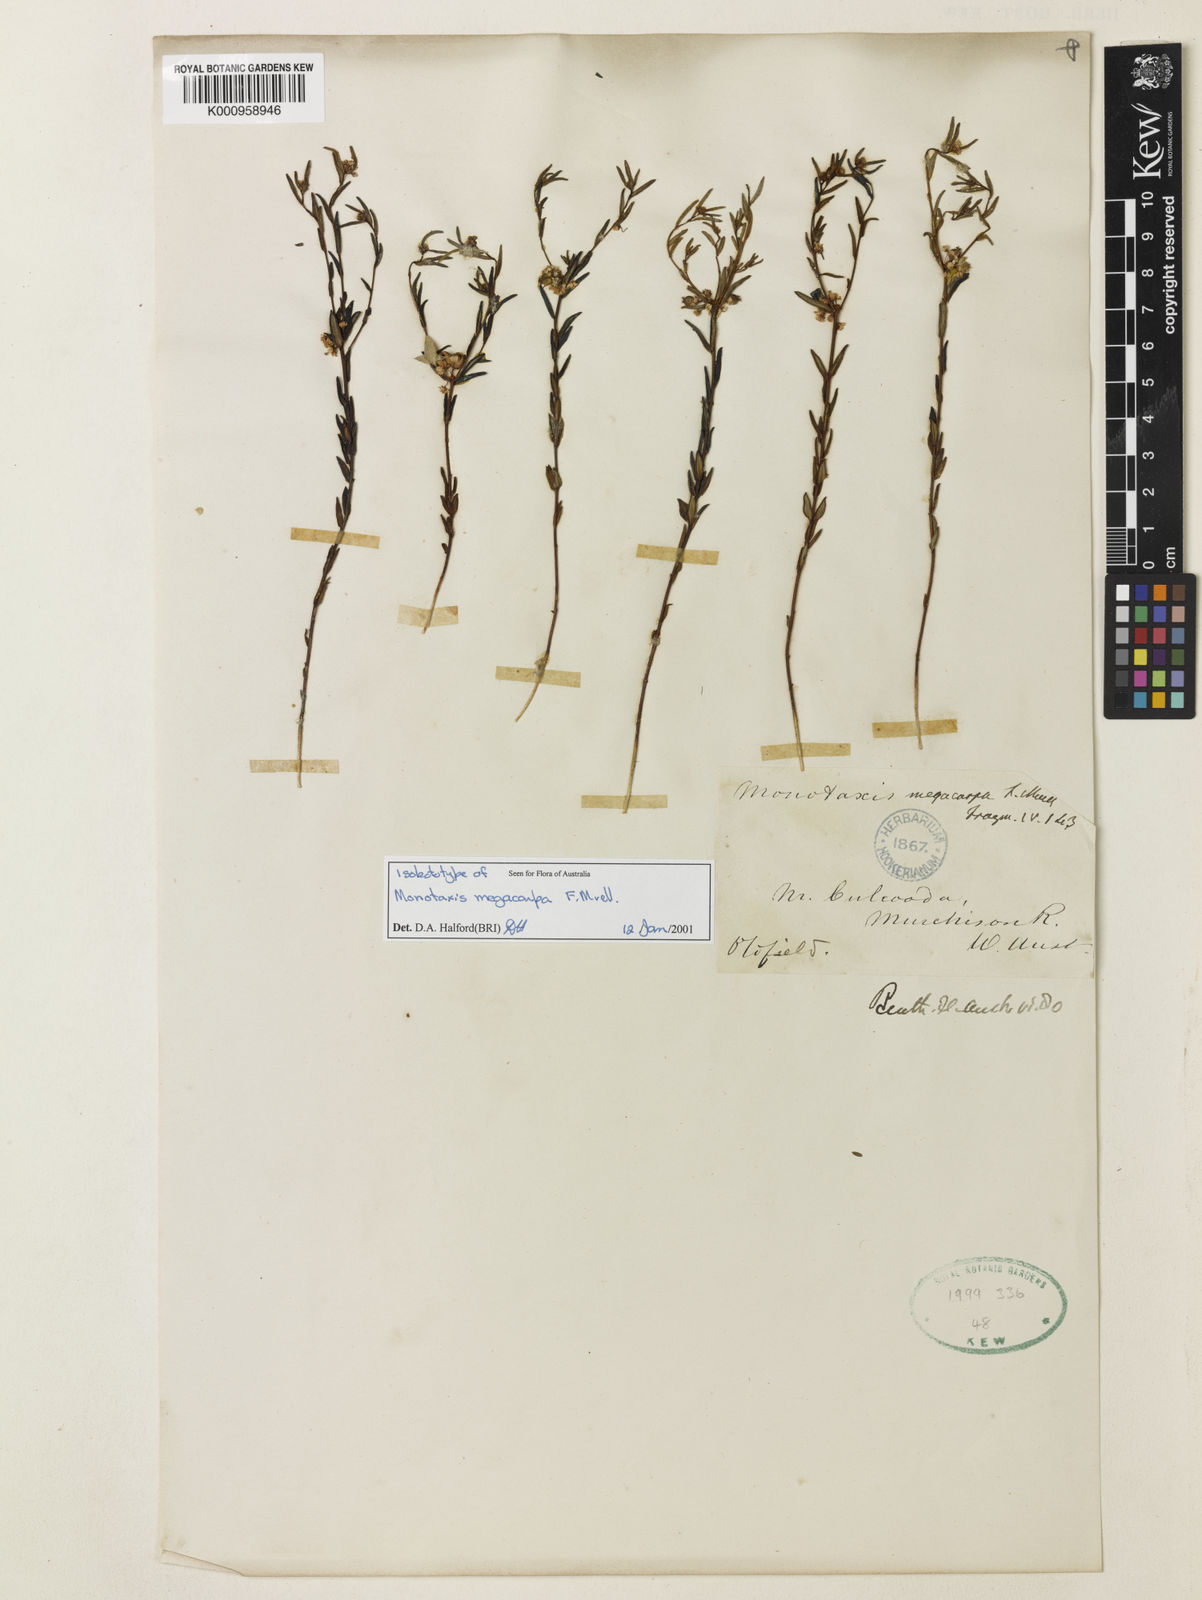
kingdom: Plantae
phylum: Tracheophyta
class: Magnoliopsida
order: Malpighiales
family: Euphorbiaceae
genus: Monotaxis
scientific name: Monotaxis bracteata
